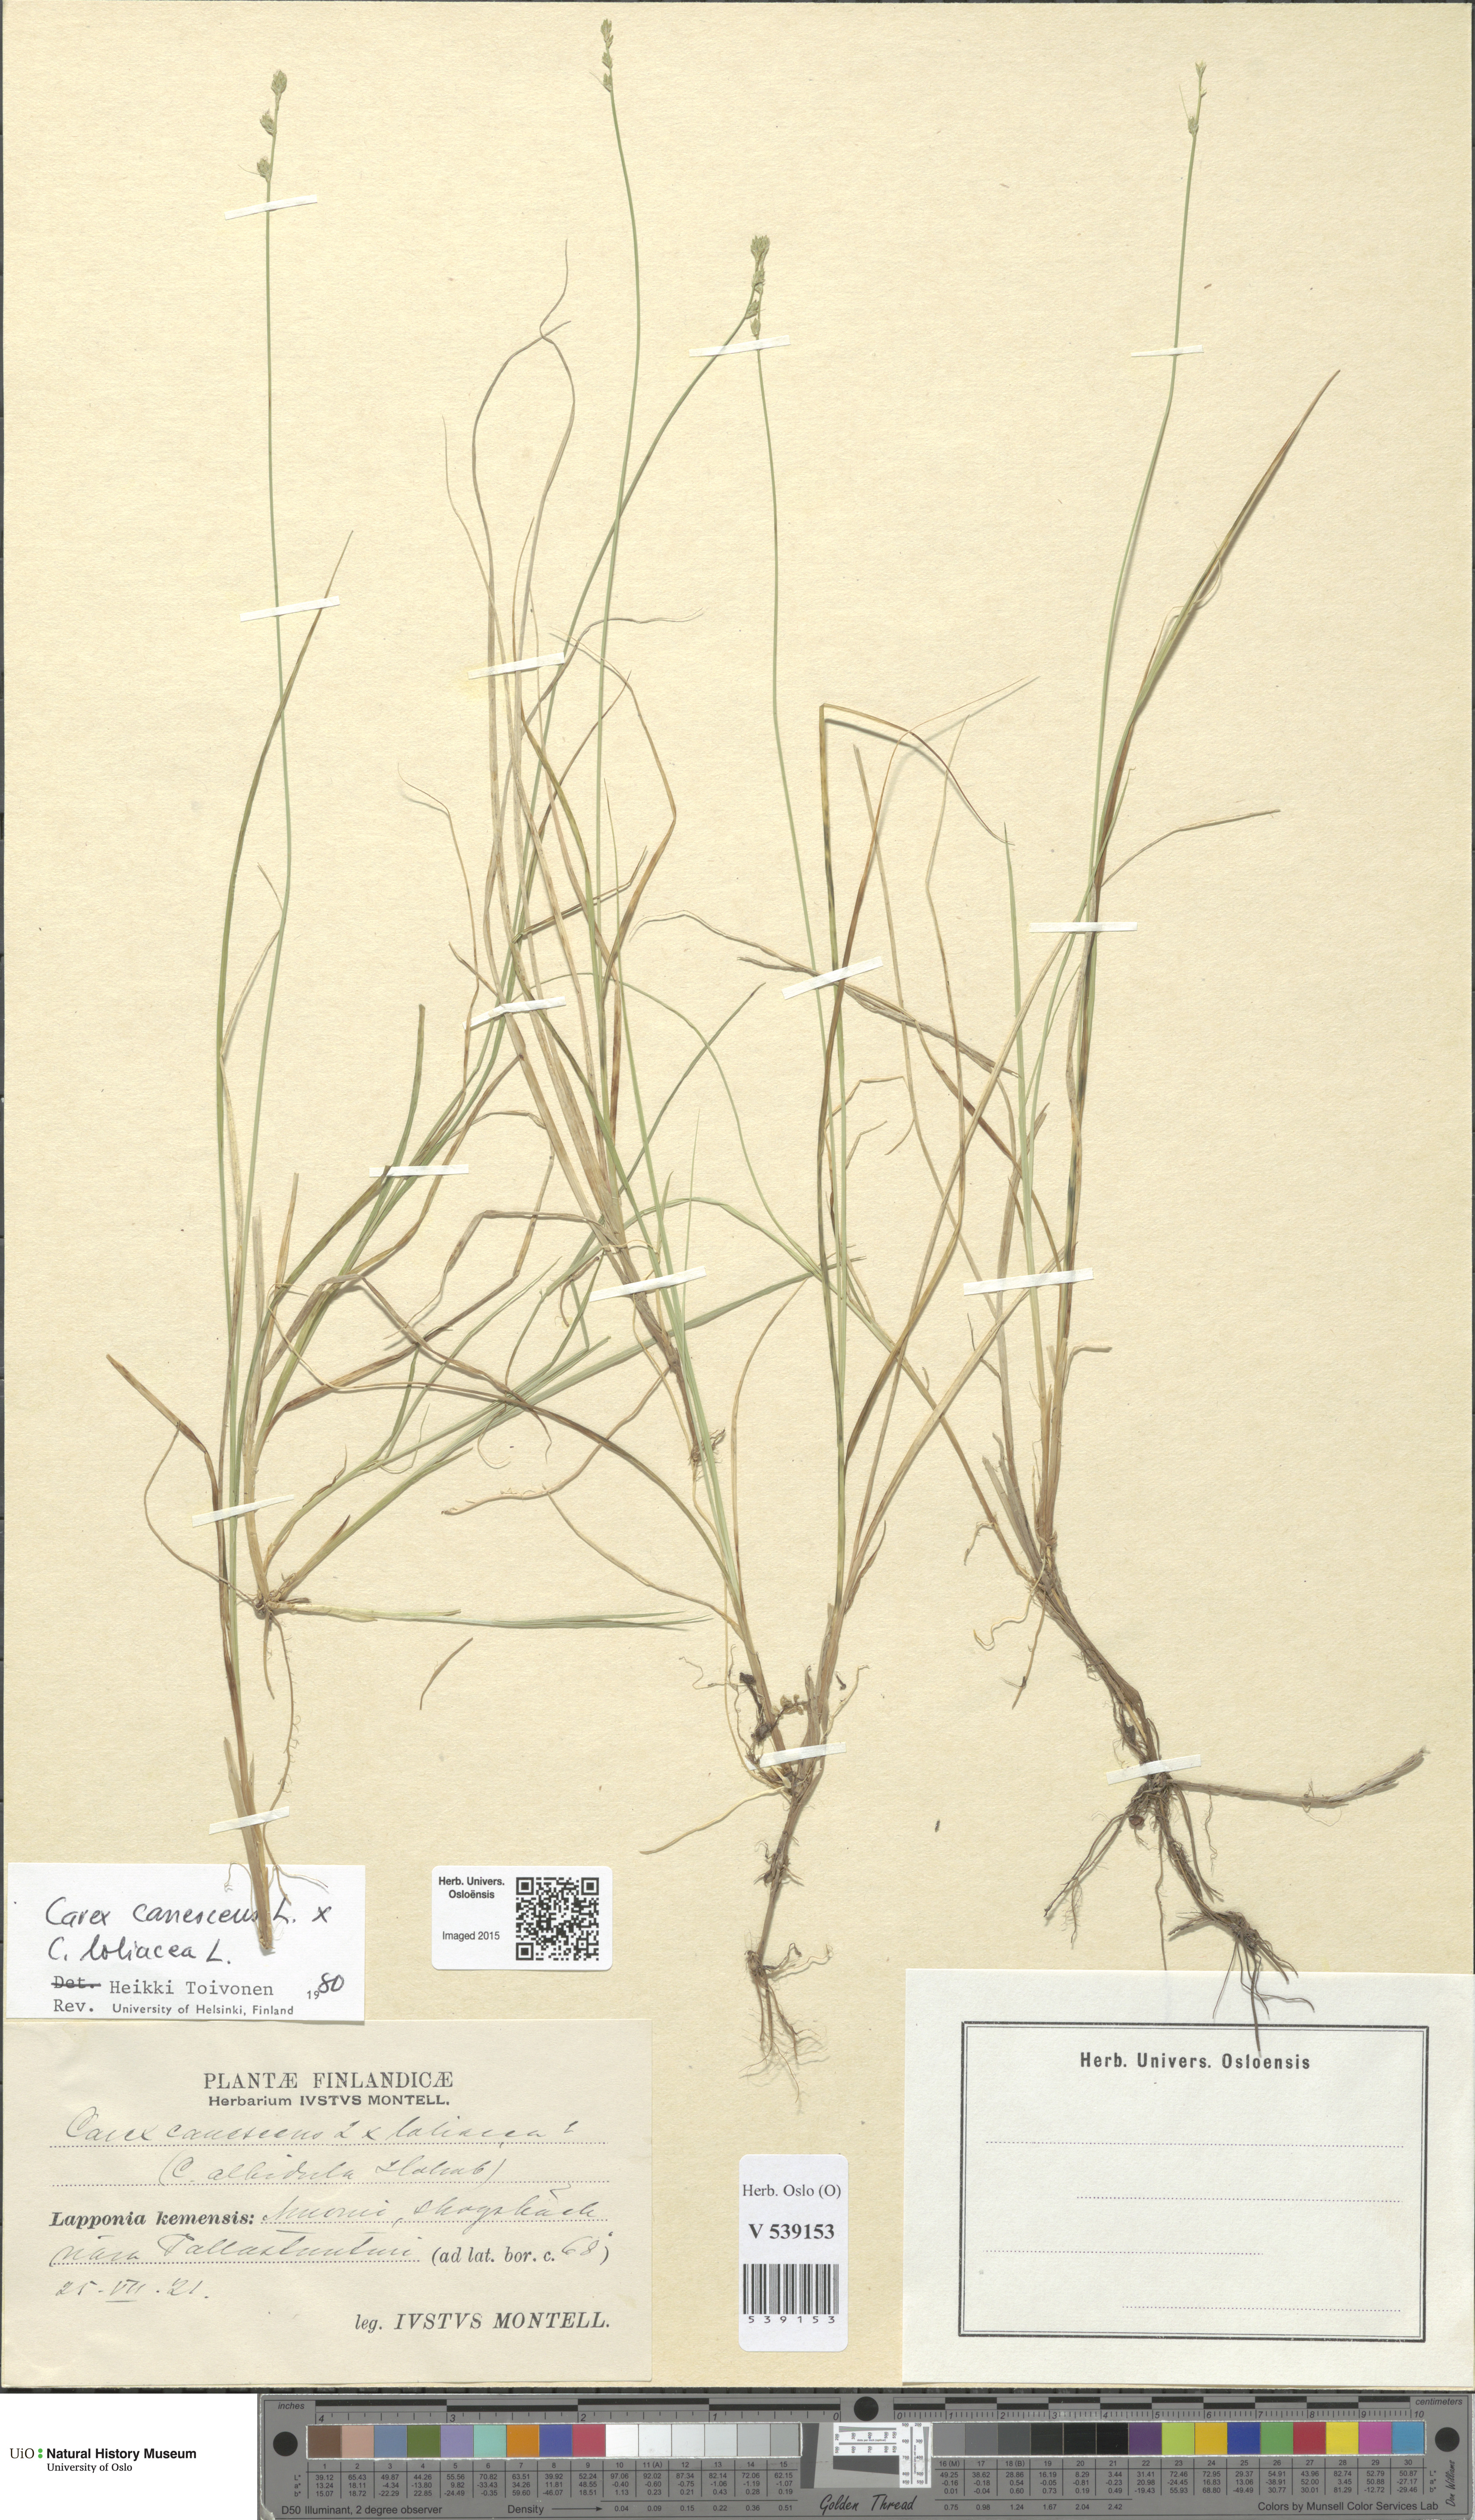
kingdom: Plantae
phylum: Tracheophyta
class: Liliopsida
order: Poales
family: Cyperaceae
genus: Carex
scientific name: Carex
